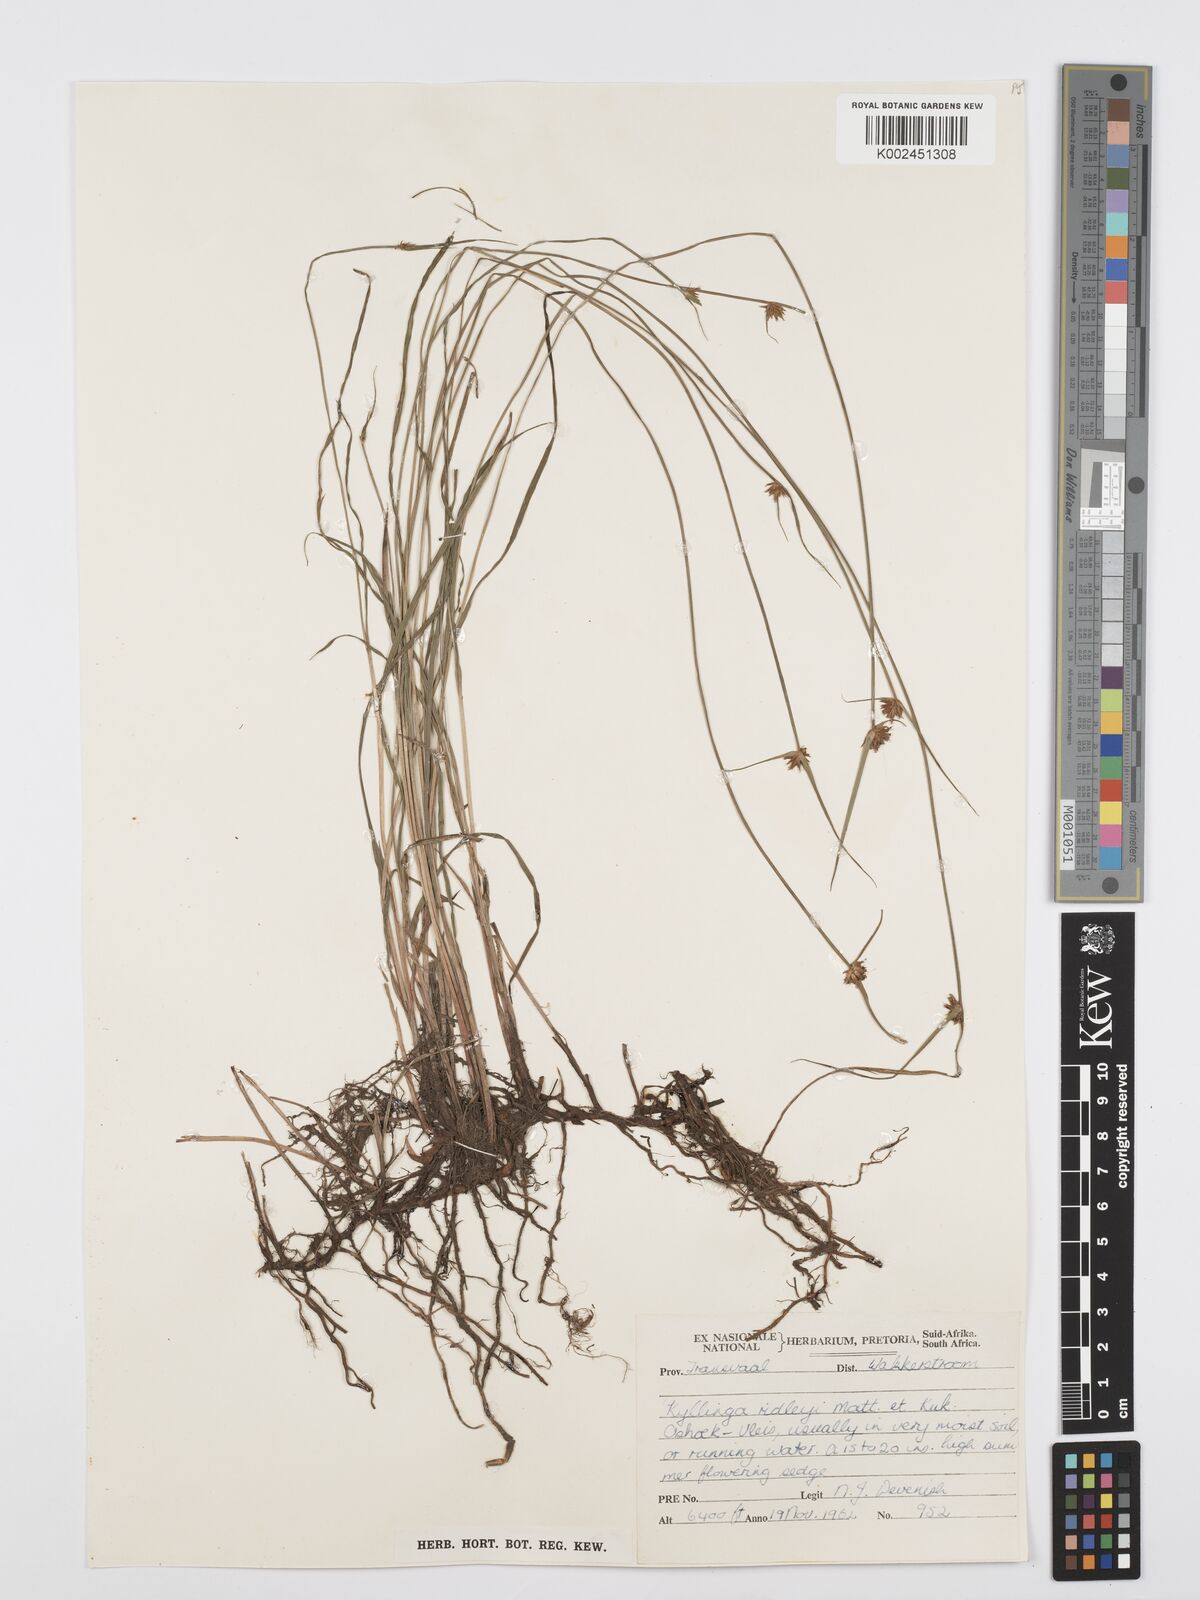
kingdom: Plantae
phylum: Tracheophyta
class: Liliopsida
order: Poales
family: Cyperaceae
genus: Cyperus
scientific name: Cyperus
